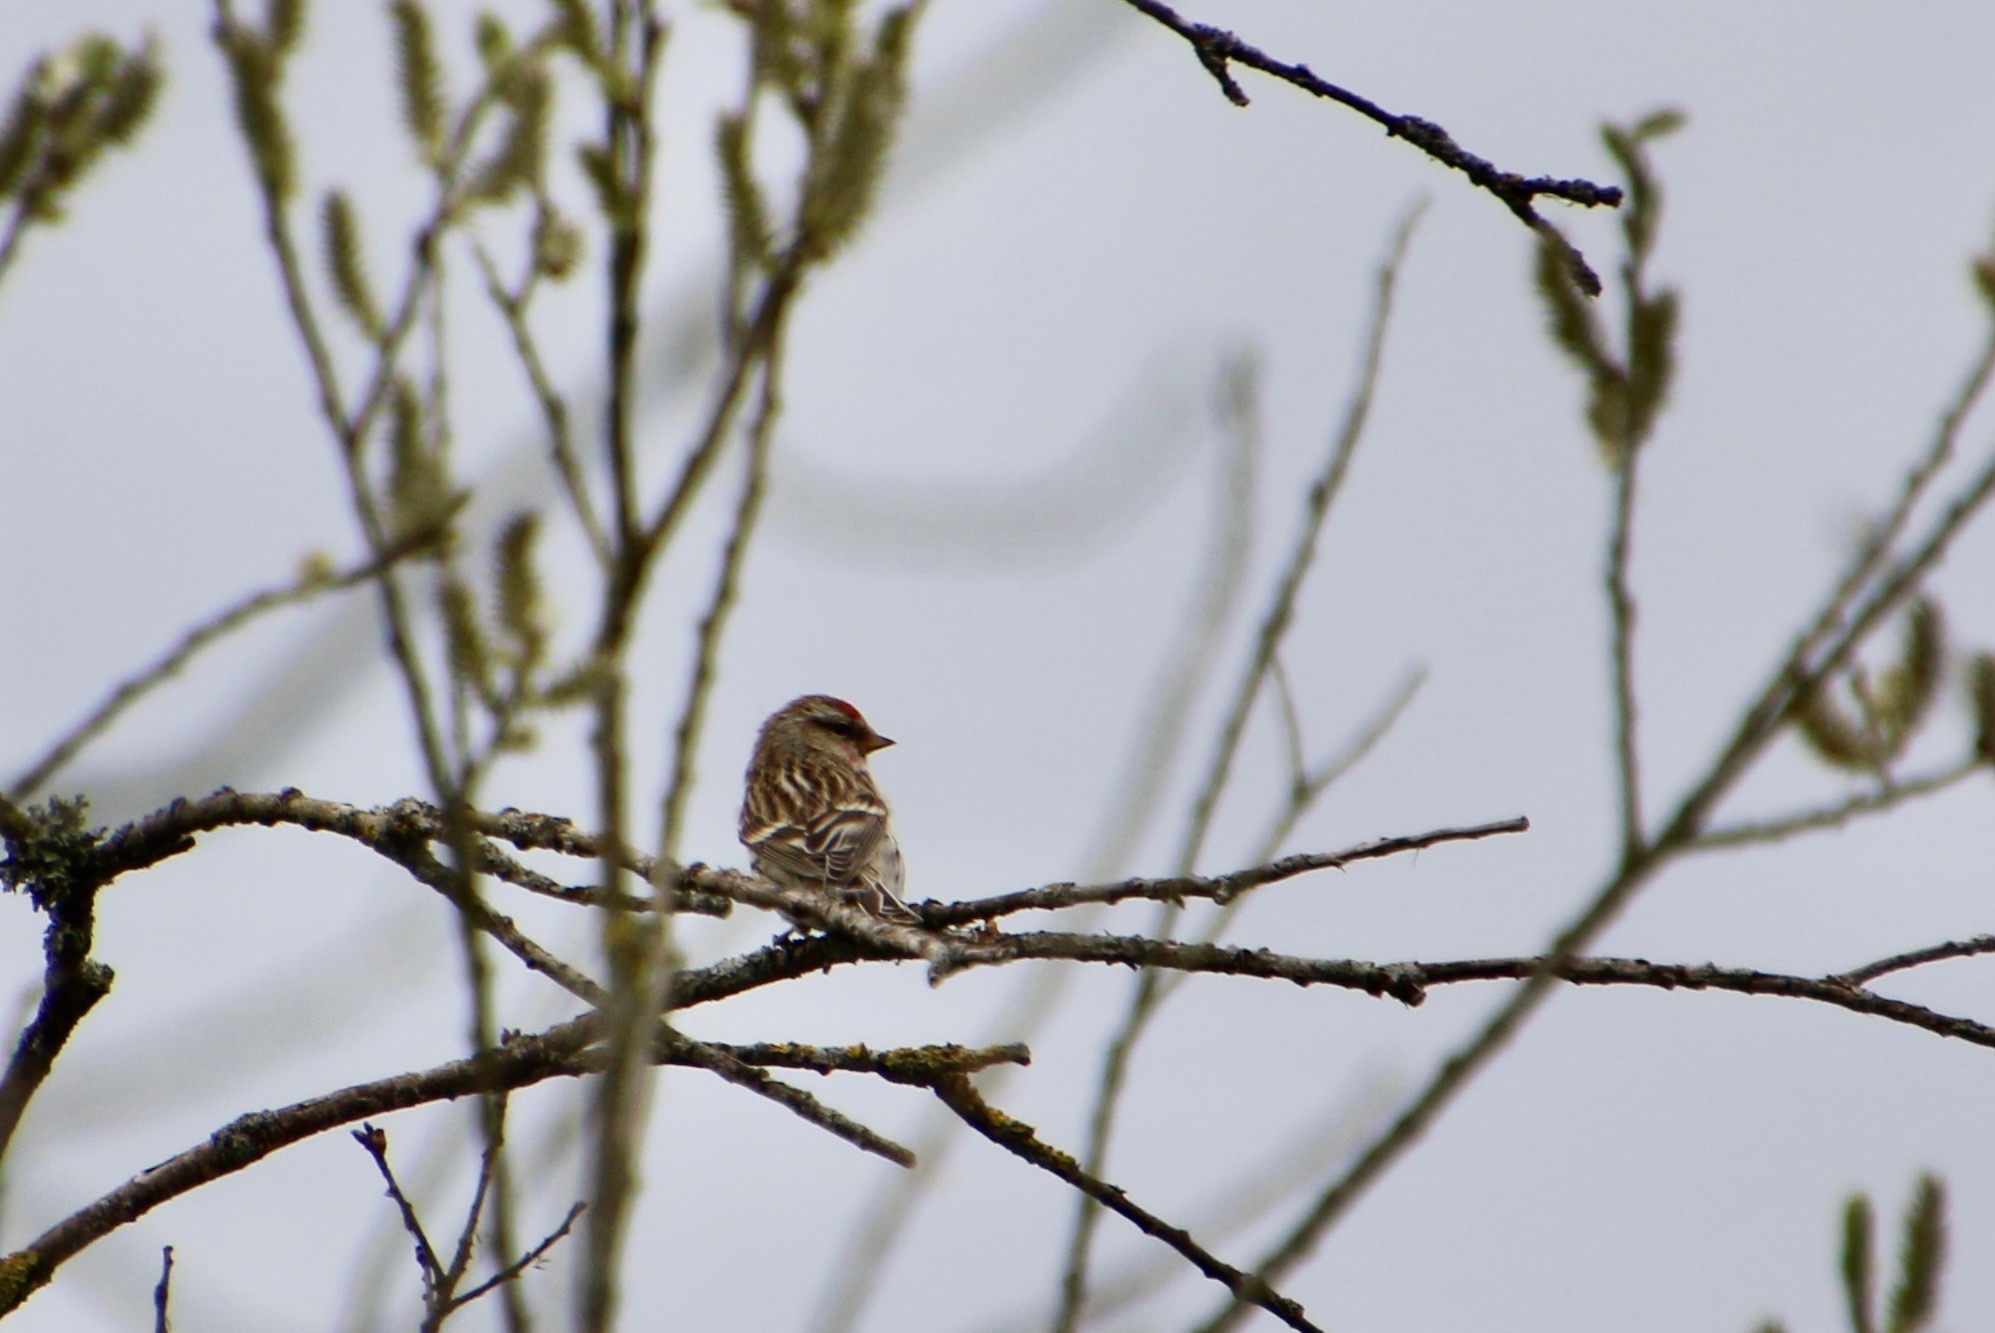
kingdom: Animalia
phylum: Chordata
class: Aves
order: Passeriformes
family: Fringillidae
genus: Acanthis
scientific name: Acanthis flammea
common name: Lille gråsisken
